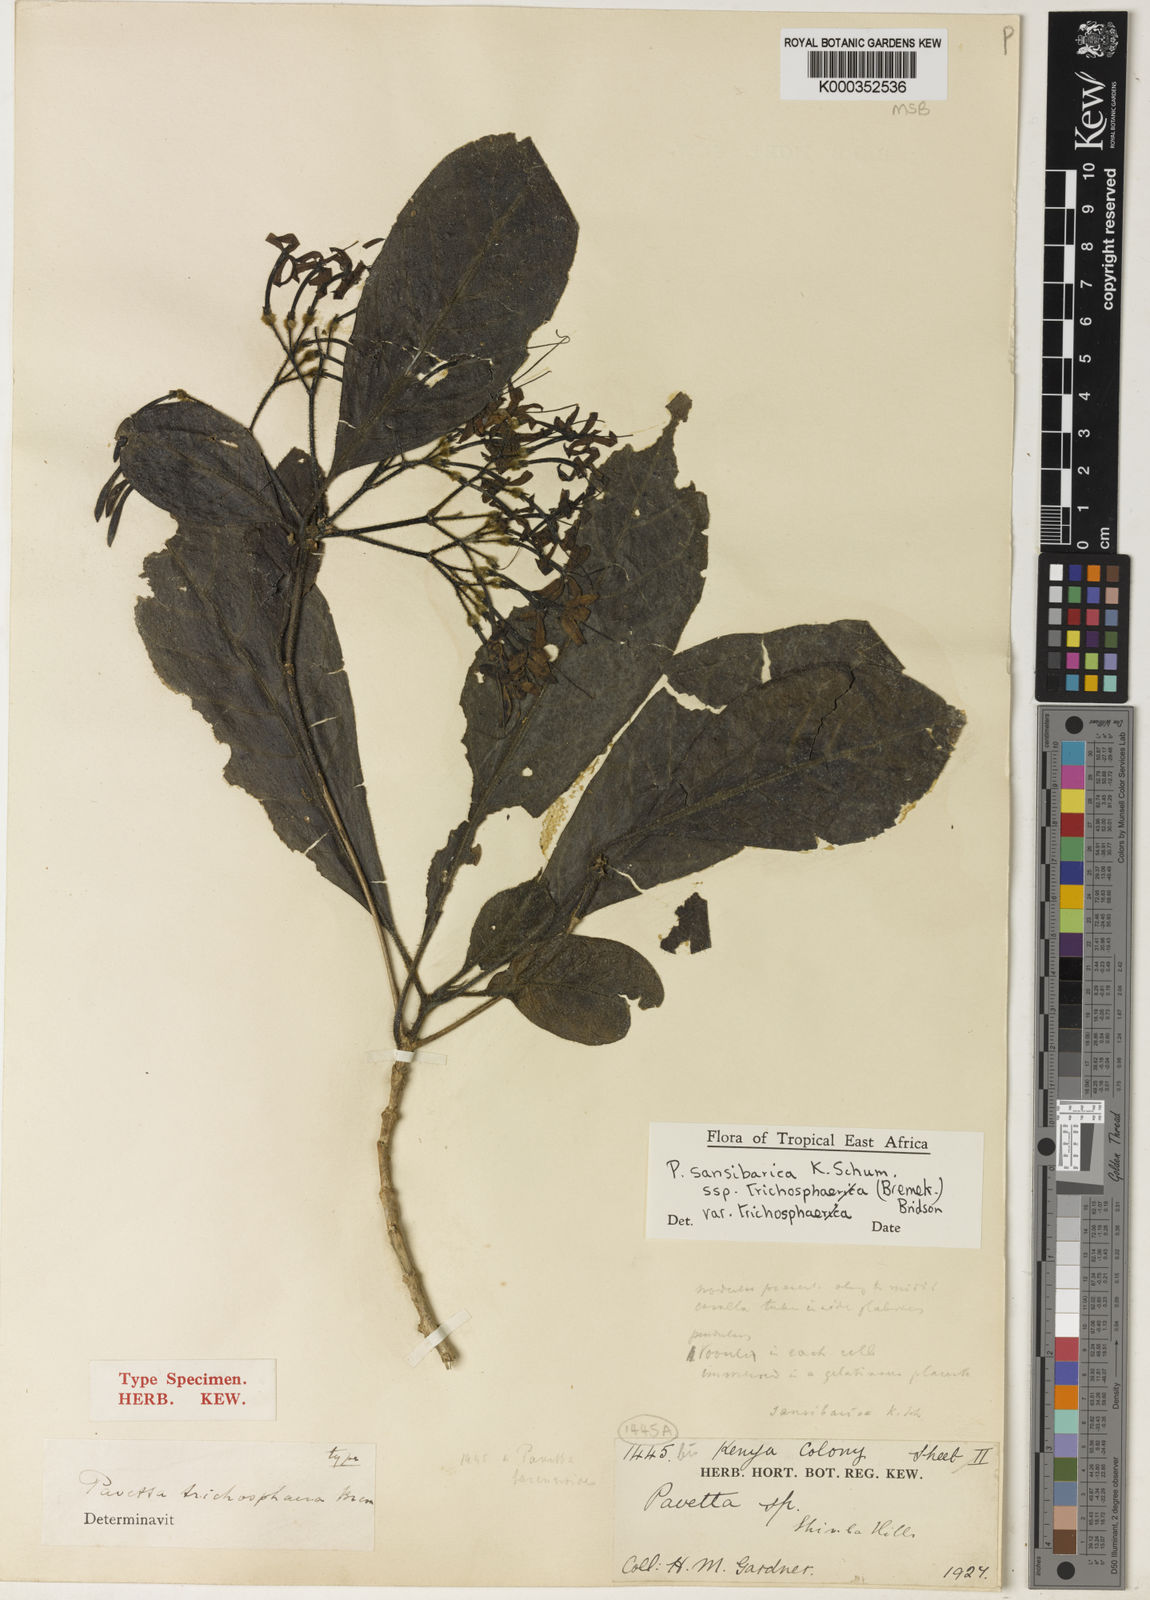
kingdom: Plantae
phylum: Tracheophyta
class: Magnoliopsida
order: Gentianales
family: Rubiaceae
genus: Pavetta
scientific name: Pavetta sansibarica
